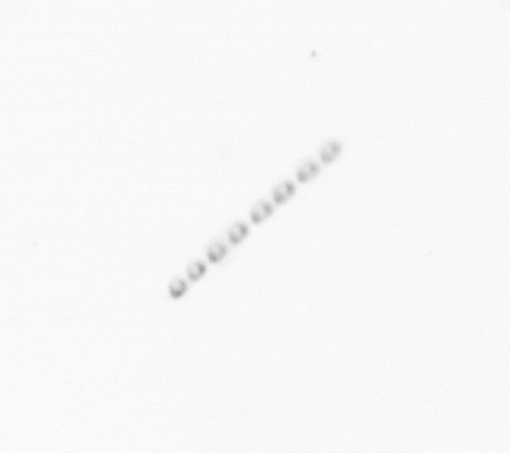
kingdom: Chromista
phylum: Ochrophyta
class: Bacillariophyceae
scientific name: Bacillariophyceae
